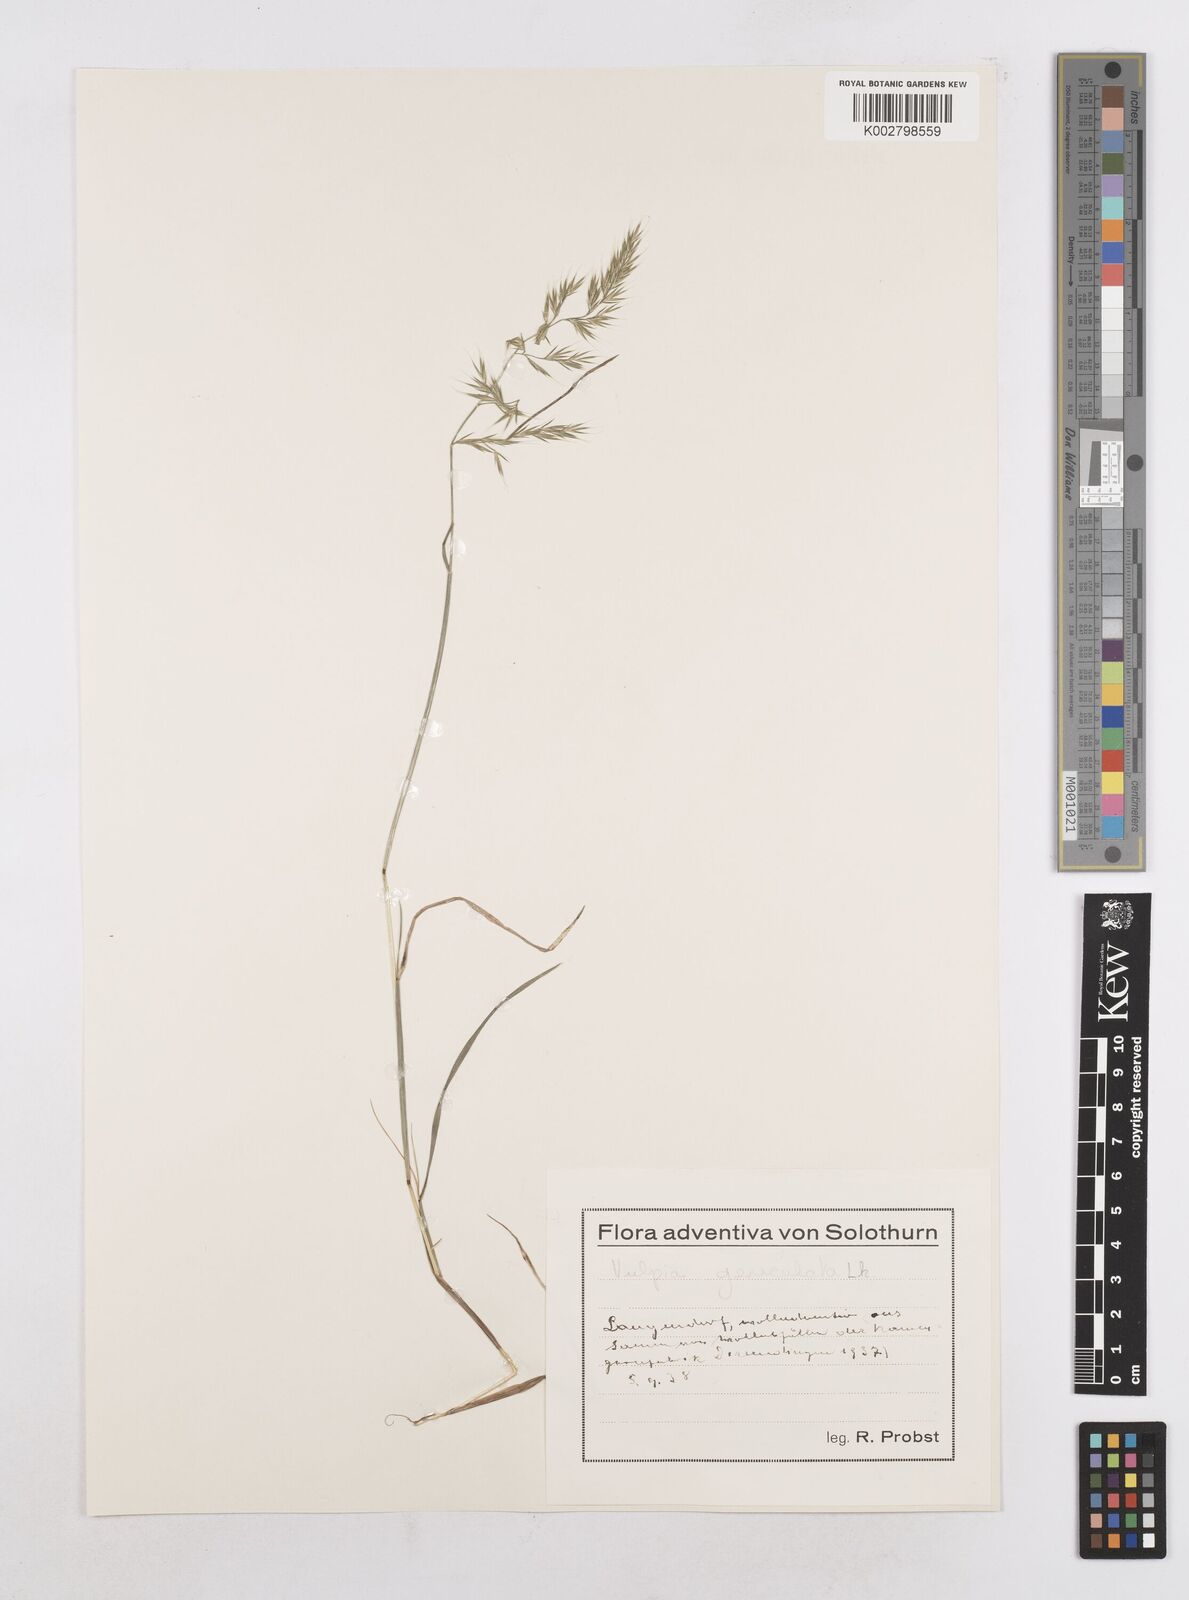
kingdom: Plantae
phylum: Tracheophyta
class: Liliopsida
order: Poales
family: Poaceae
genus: Festuca
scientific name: Festuca geniculata
